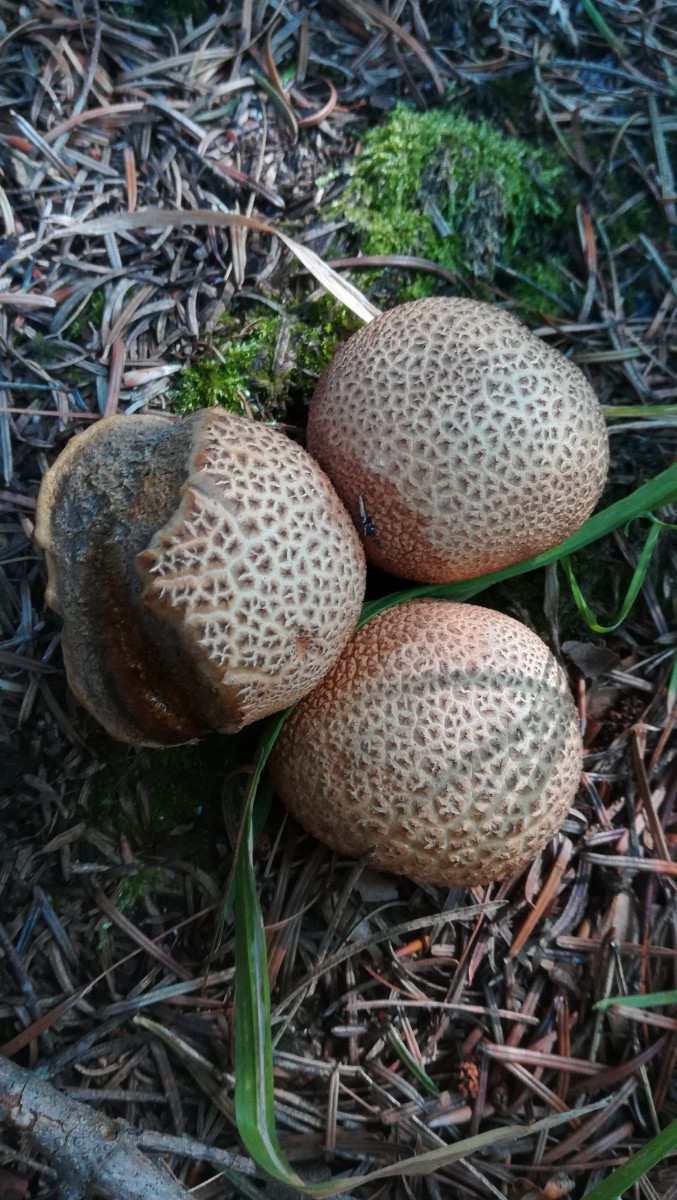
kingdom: Fungi
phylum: Basidiomycota
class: Agaricomycetes
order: Boletales
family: Sclerodermataceae
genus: Scleroderma
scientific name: Scleroderma citrinum
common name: almindelig bruskbold
